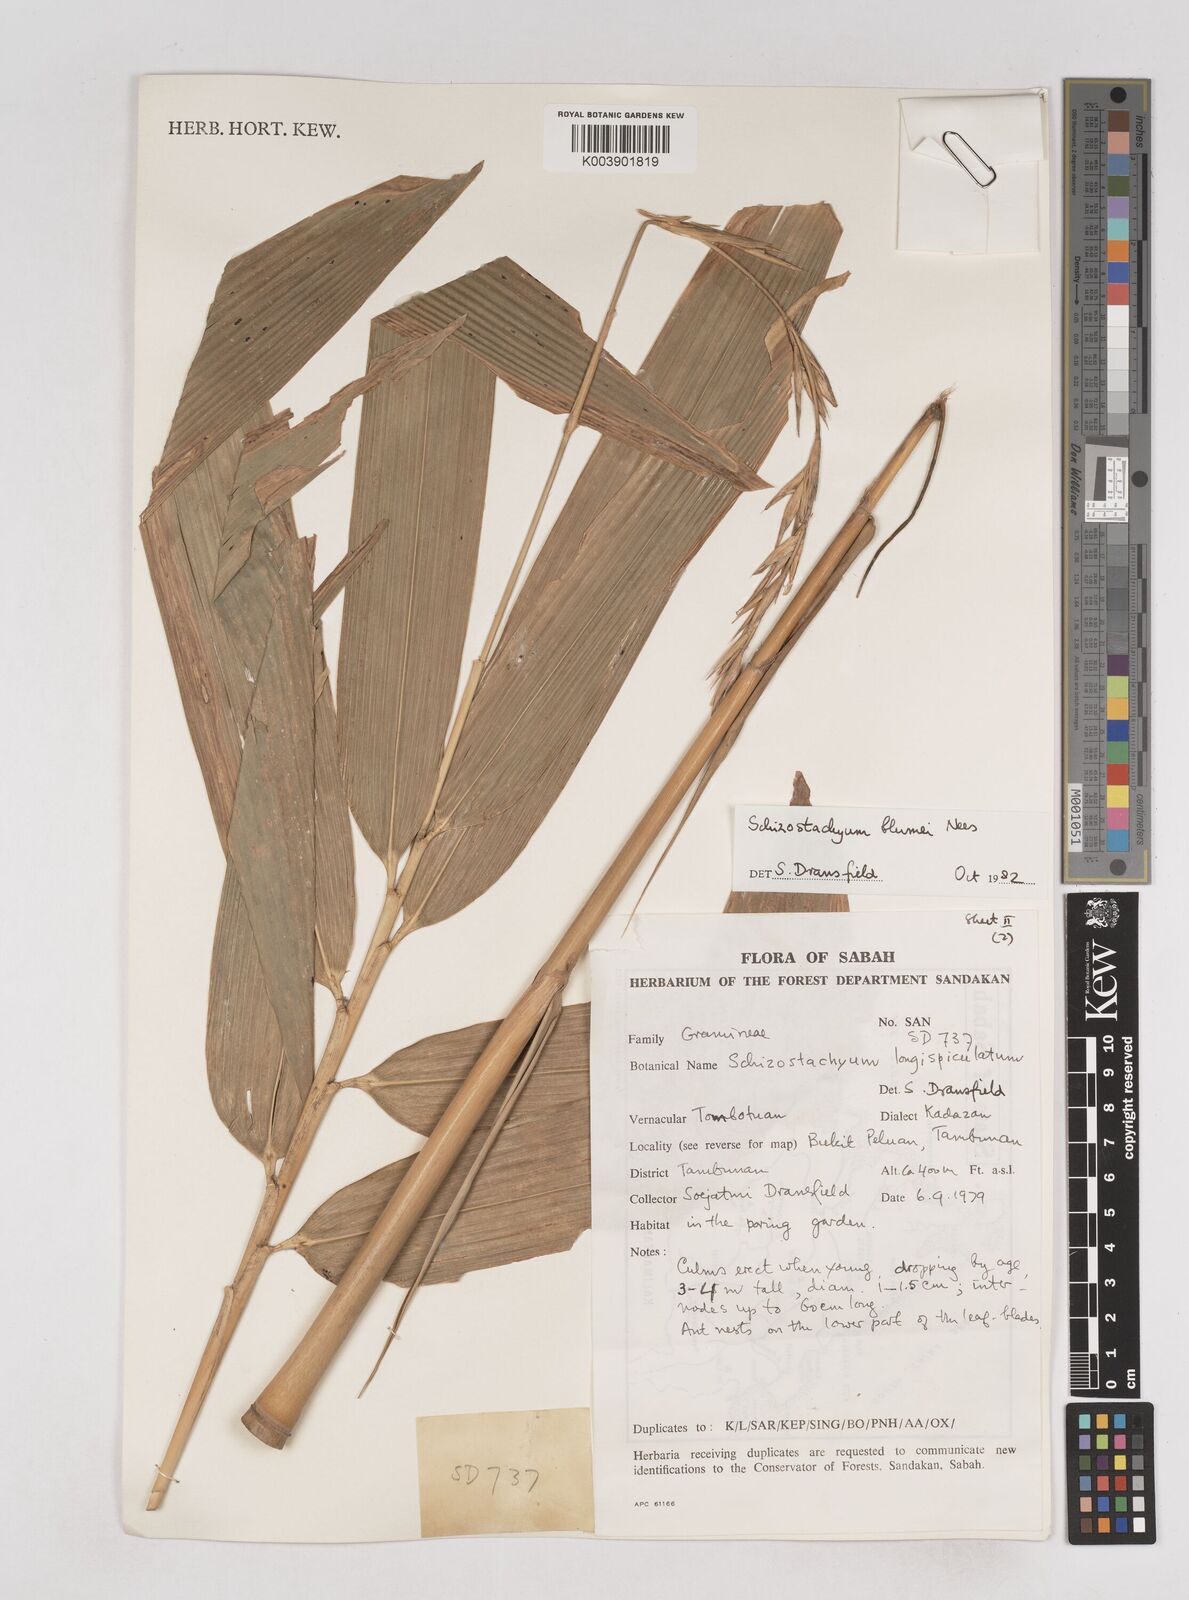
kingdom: Plantae
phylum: Tracheophyta
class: Liliopsida
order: Poales
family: Poaceae
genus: Schizostachyum
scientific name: Schizostachyum blumei
